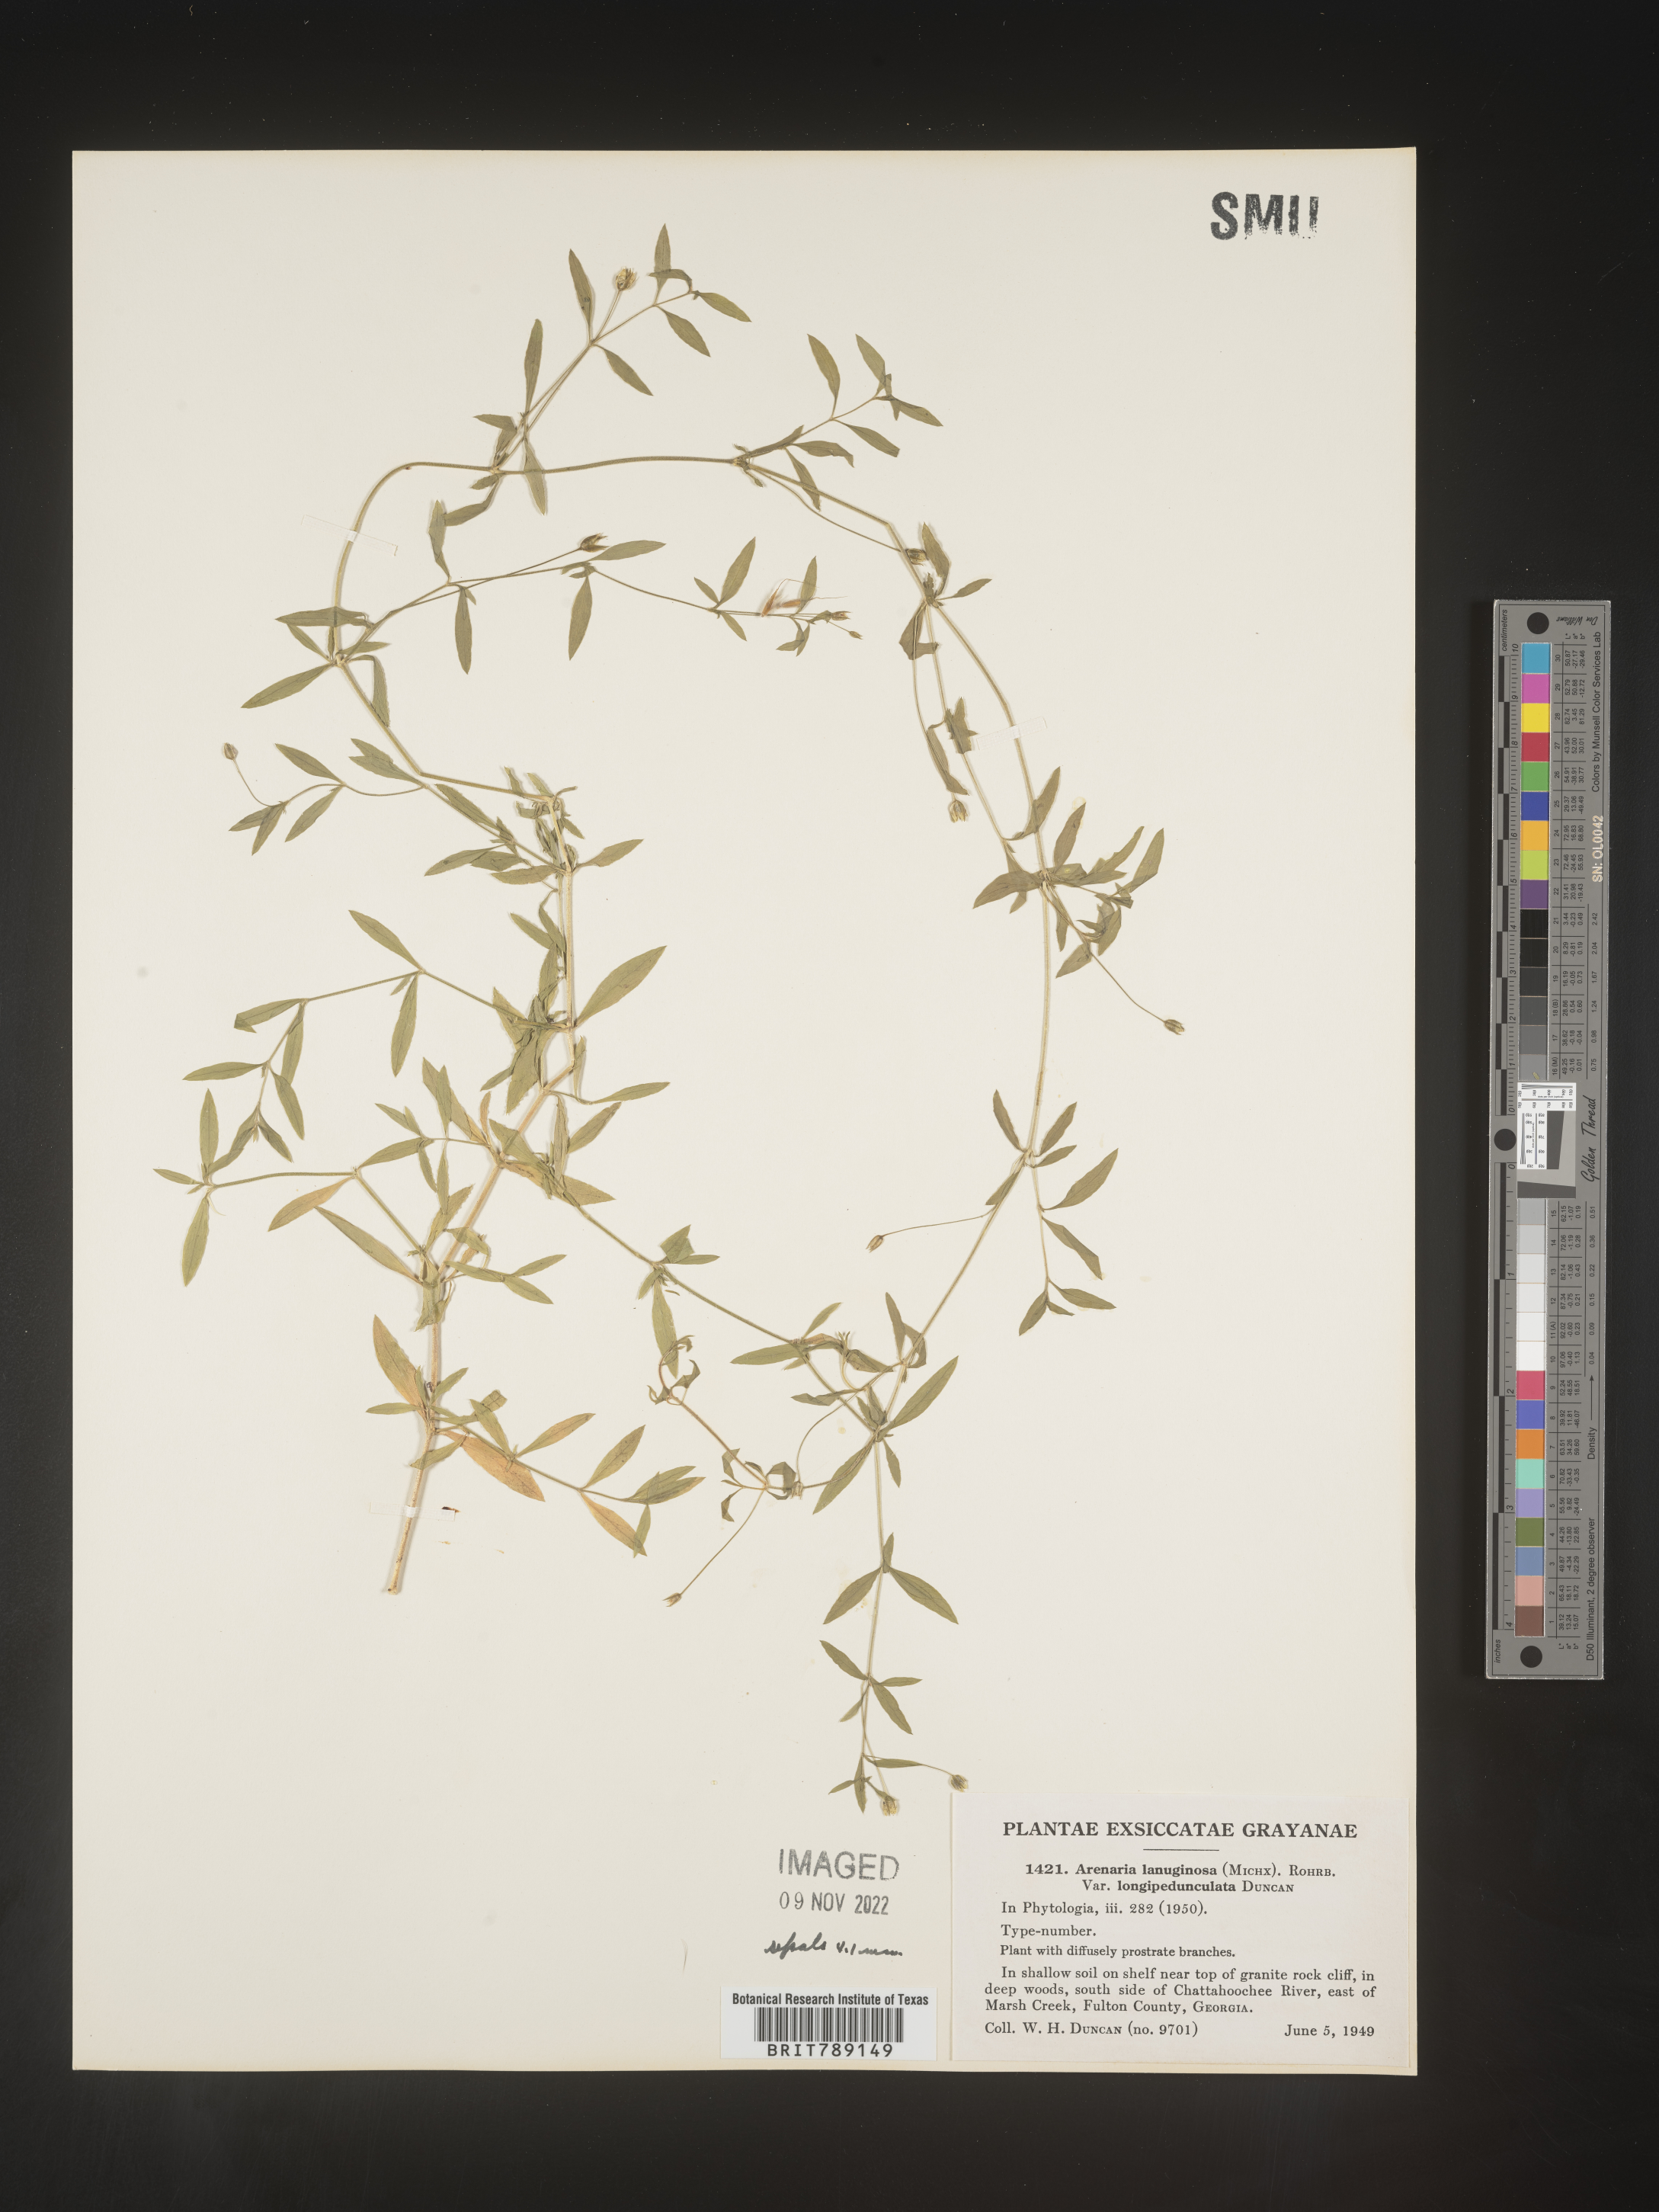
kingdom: Plantae
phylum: Tracheophyta
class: Magnoliopsida
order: Caryophyllales
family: Caryophyllaceae
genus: Arenaria
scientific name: Arenaria
